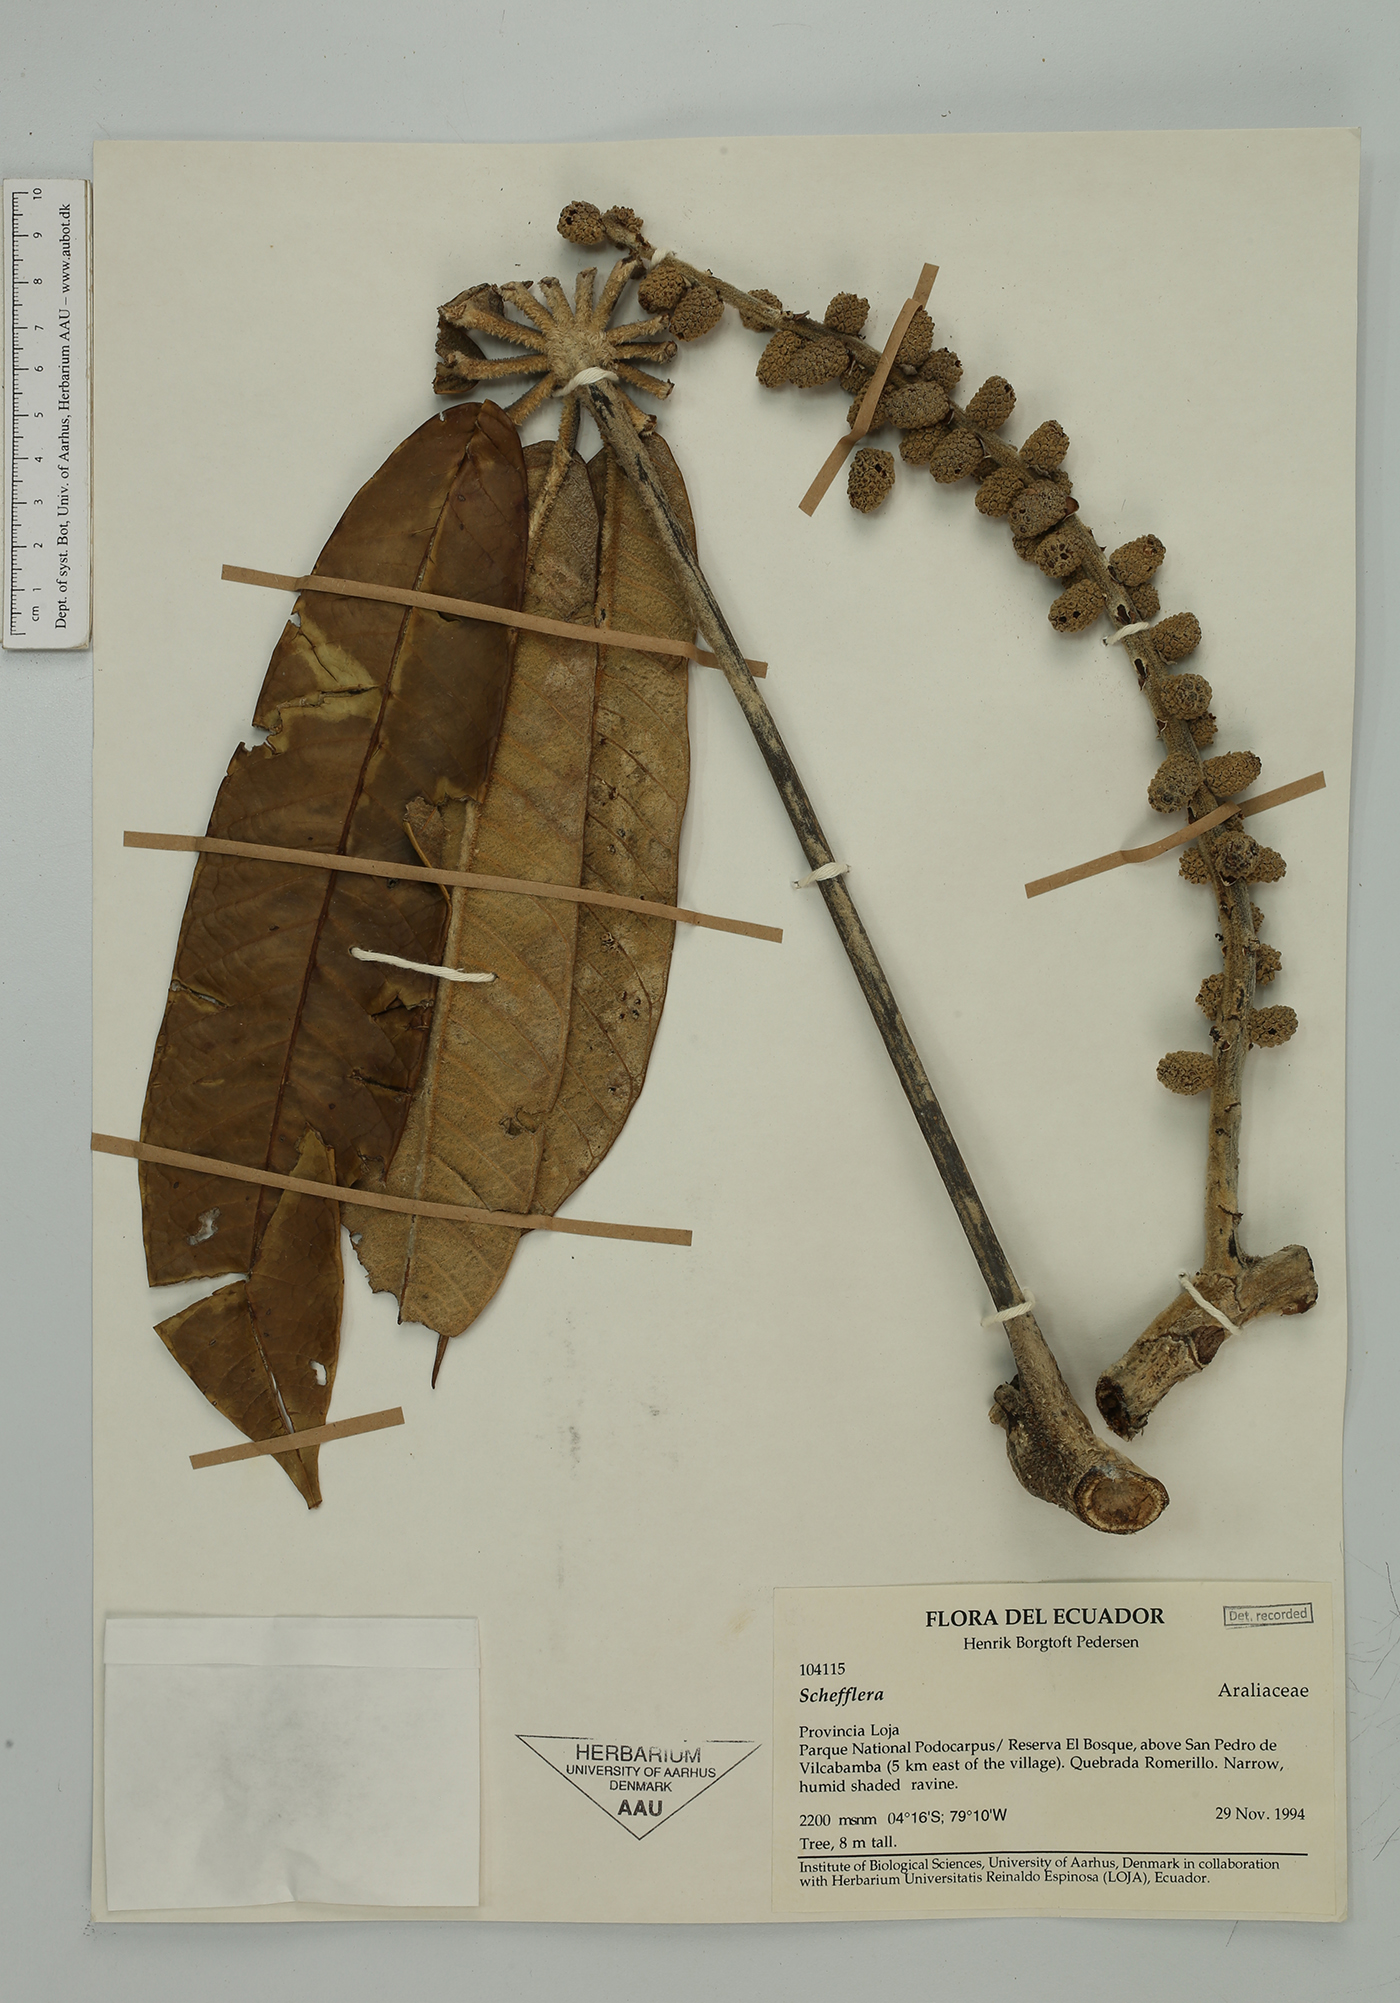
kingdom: Plantae
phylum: Tracheophyta
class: Magnoliopsida
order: Apiales
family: Araliaceae
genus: Sciodaphyllum
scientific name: Sciodaphyllum
